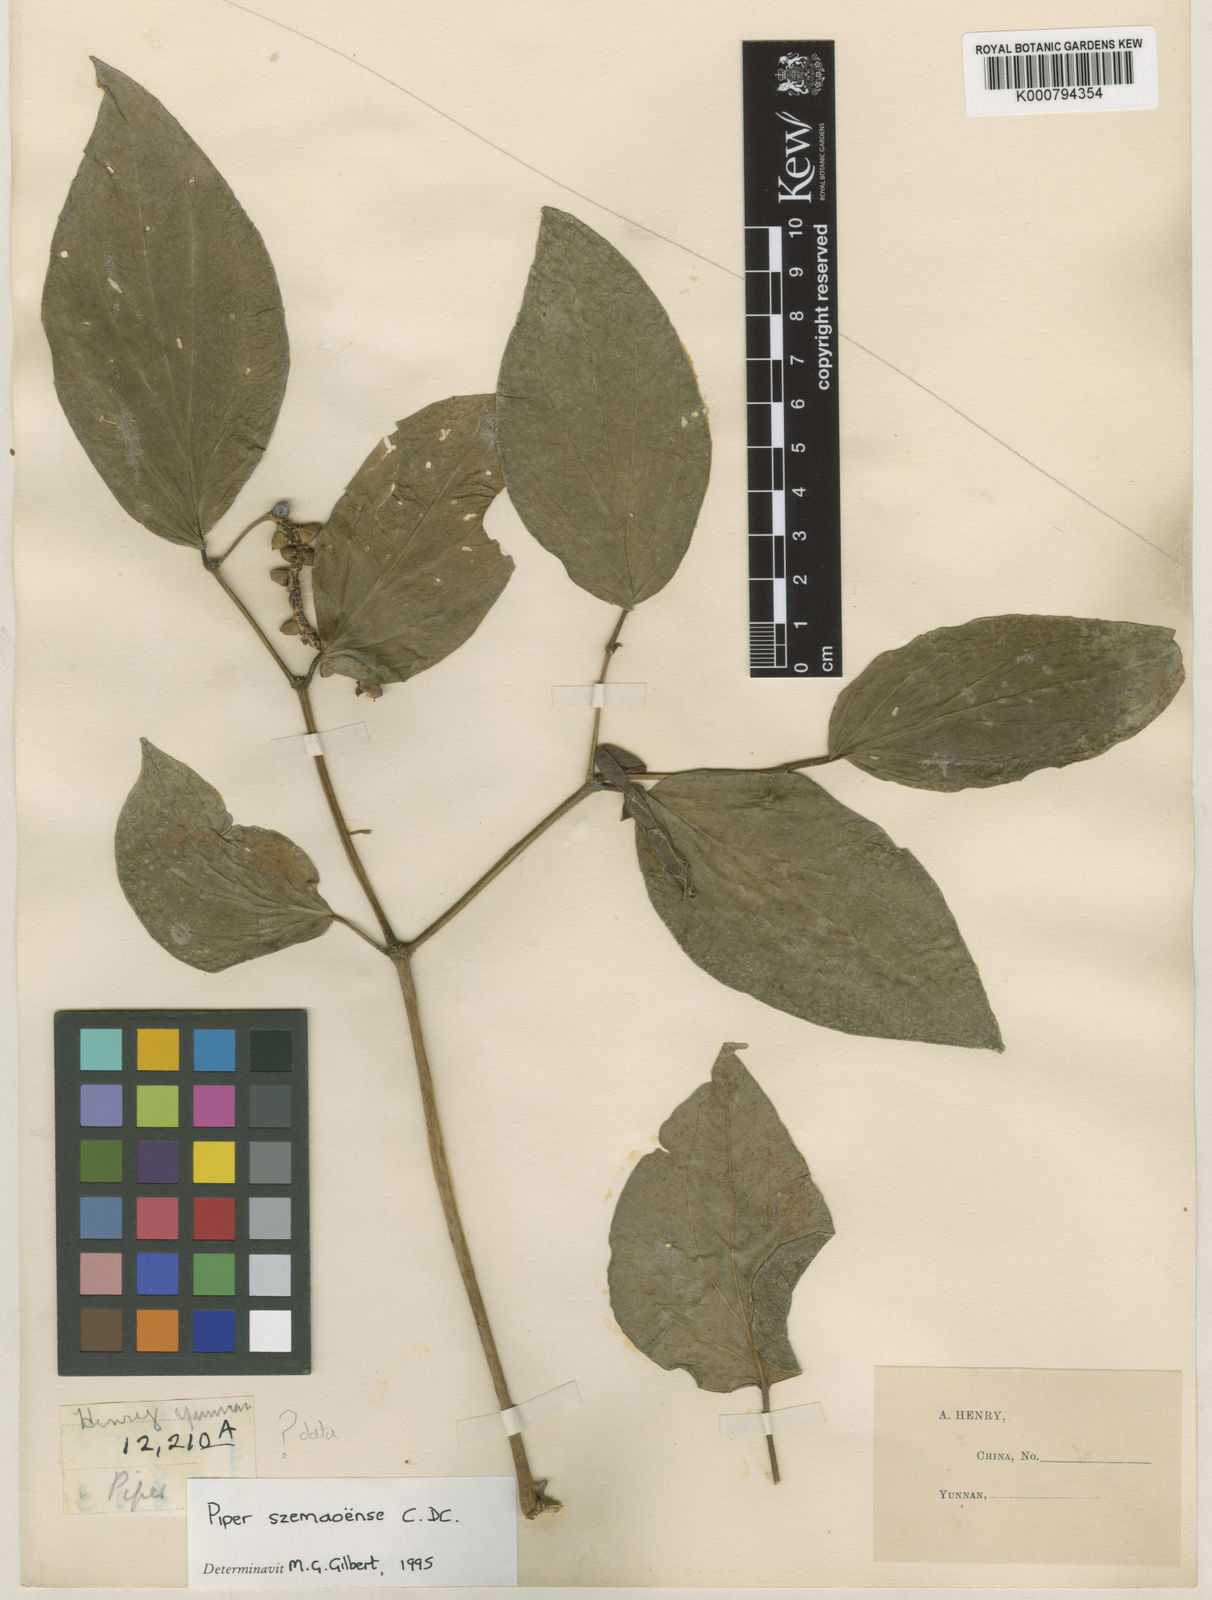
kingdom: Plantae
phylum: Tracheophyta
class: Magnoliopsida
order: Piperales
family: Piperaceae
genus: Piper
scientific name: Piper macropodum
